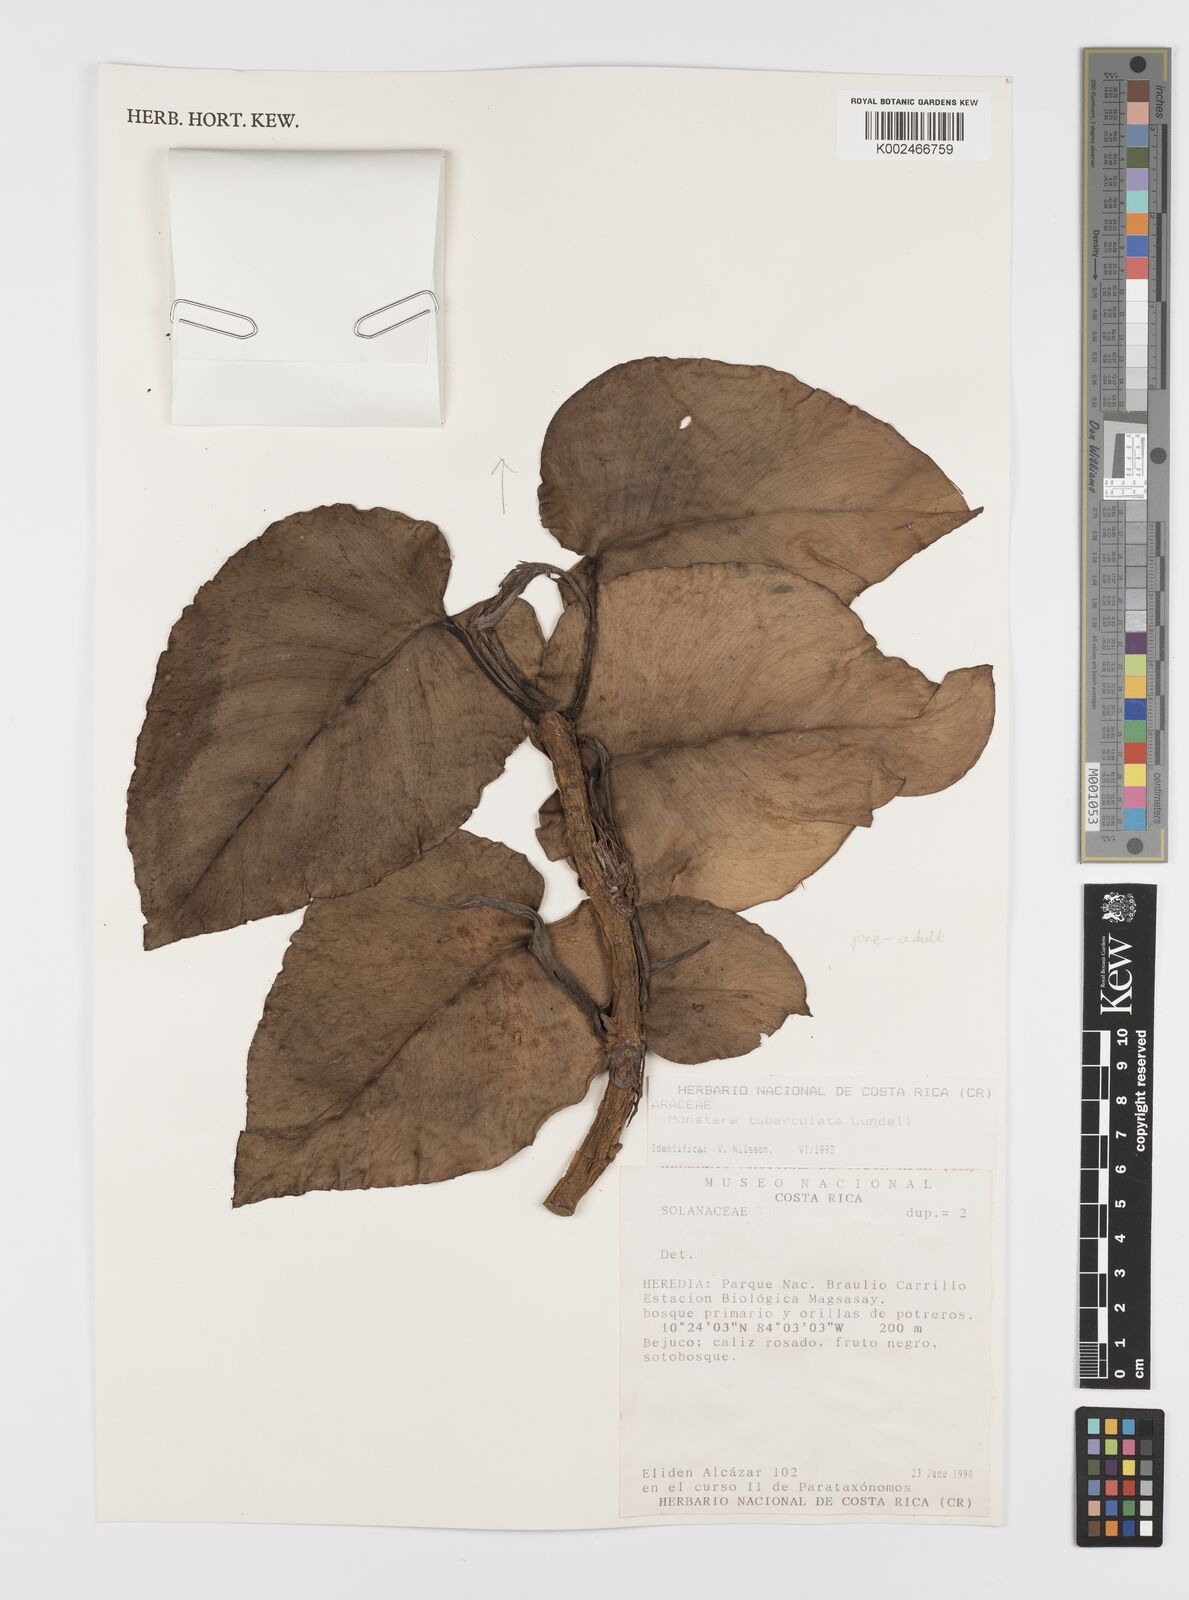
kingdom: Plantae
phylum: Tracheophyta
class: Liliopsida
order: Alismatales
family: Araceae
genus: Monstera
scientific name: Monstera tuberculata
